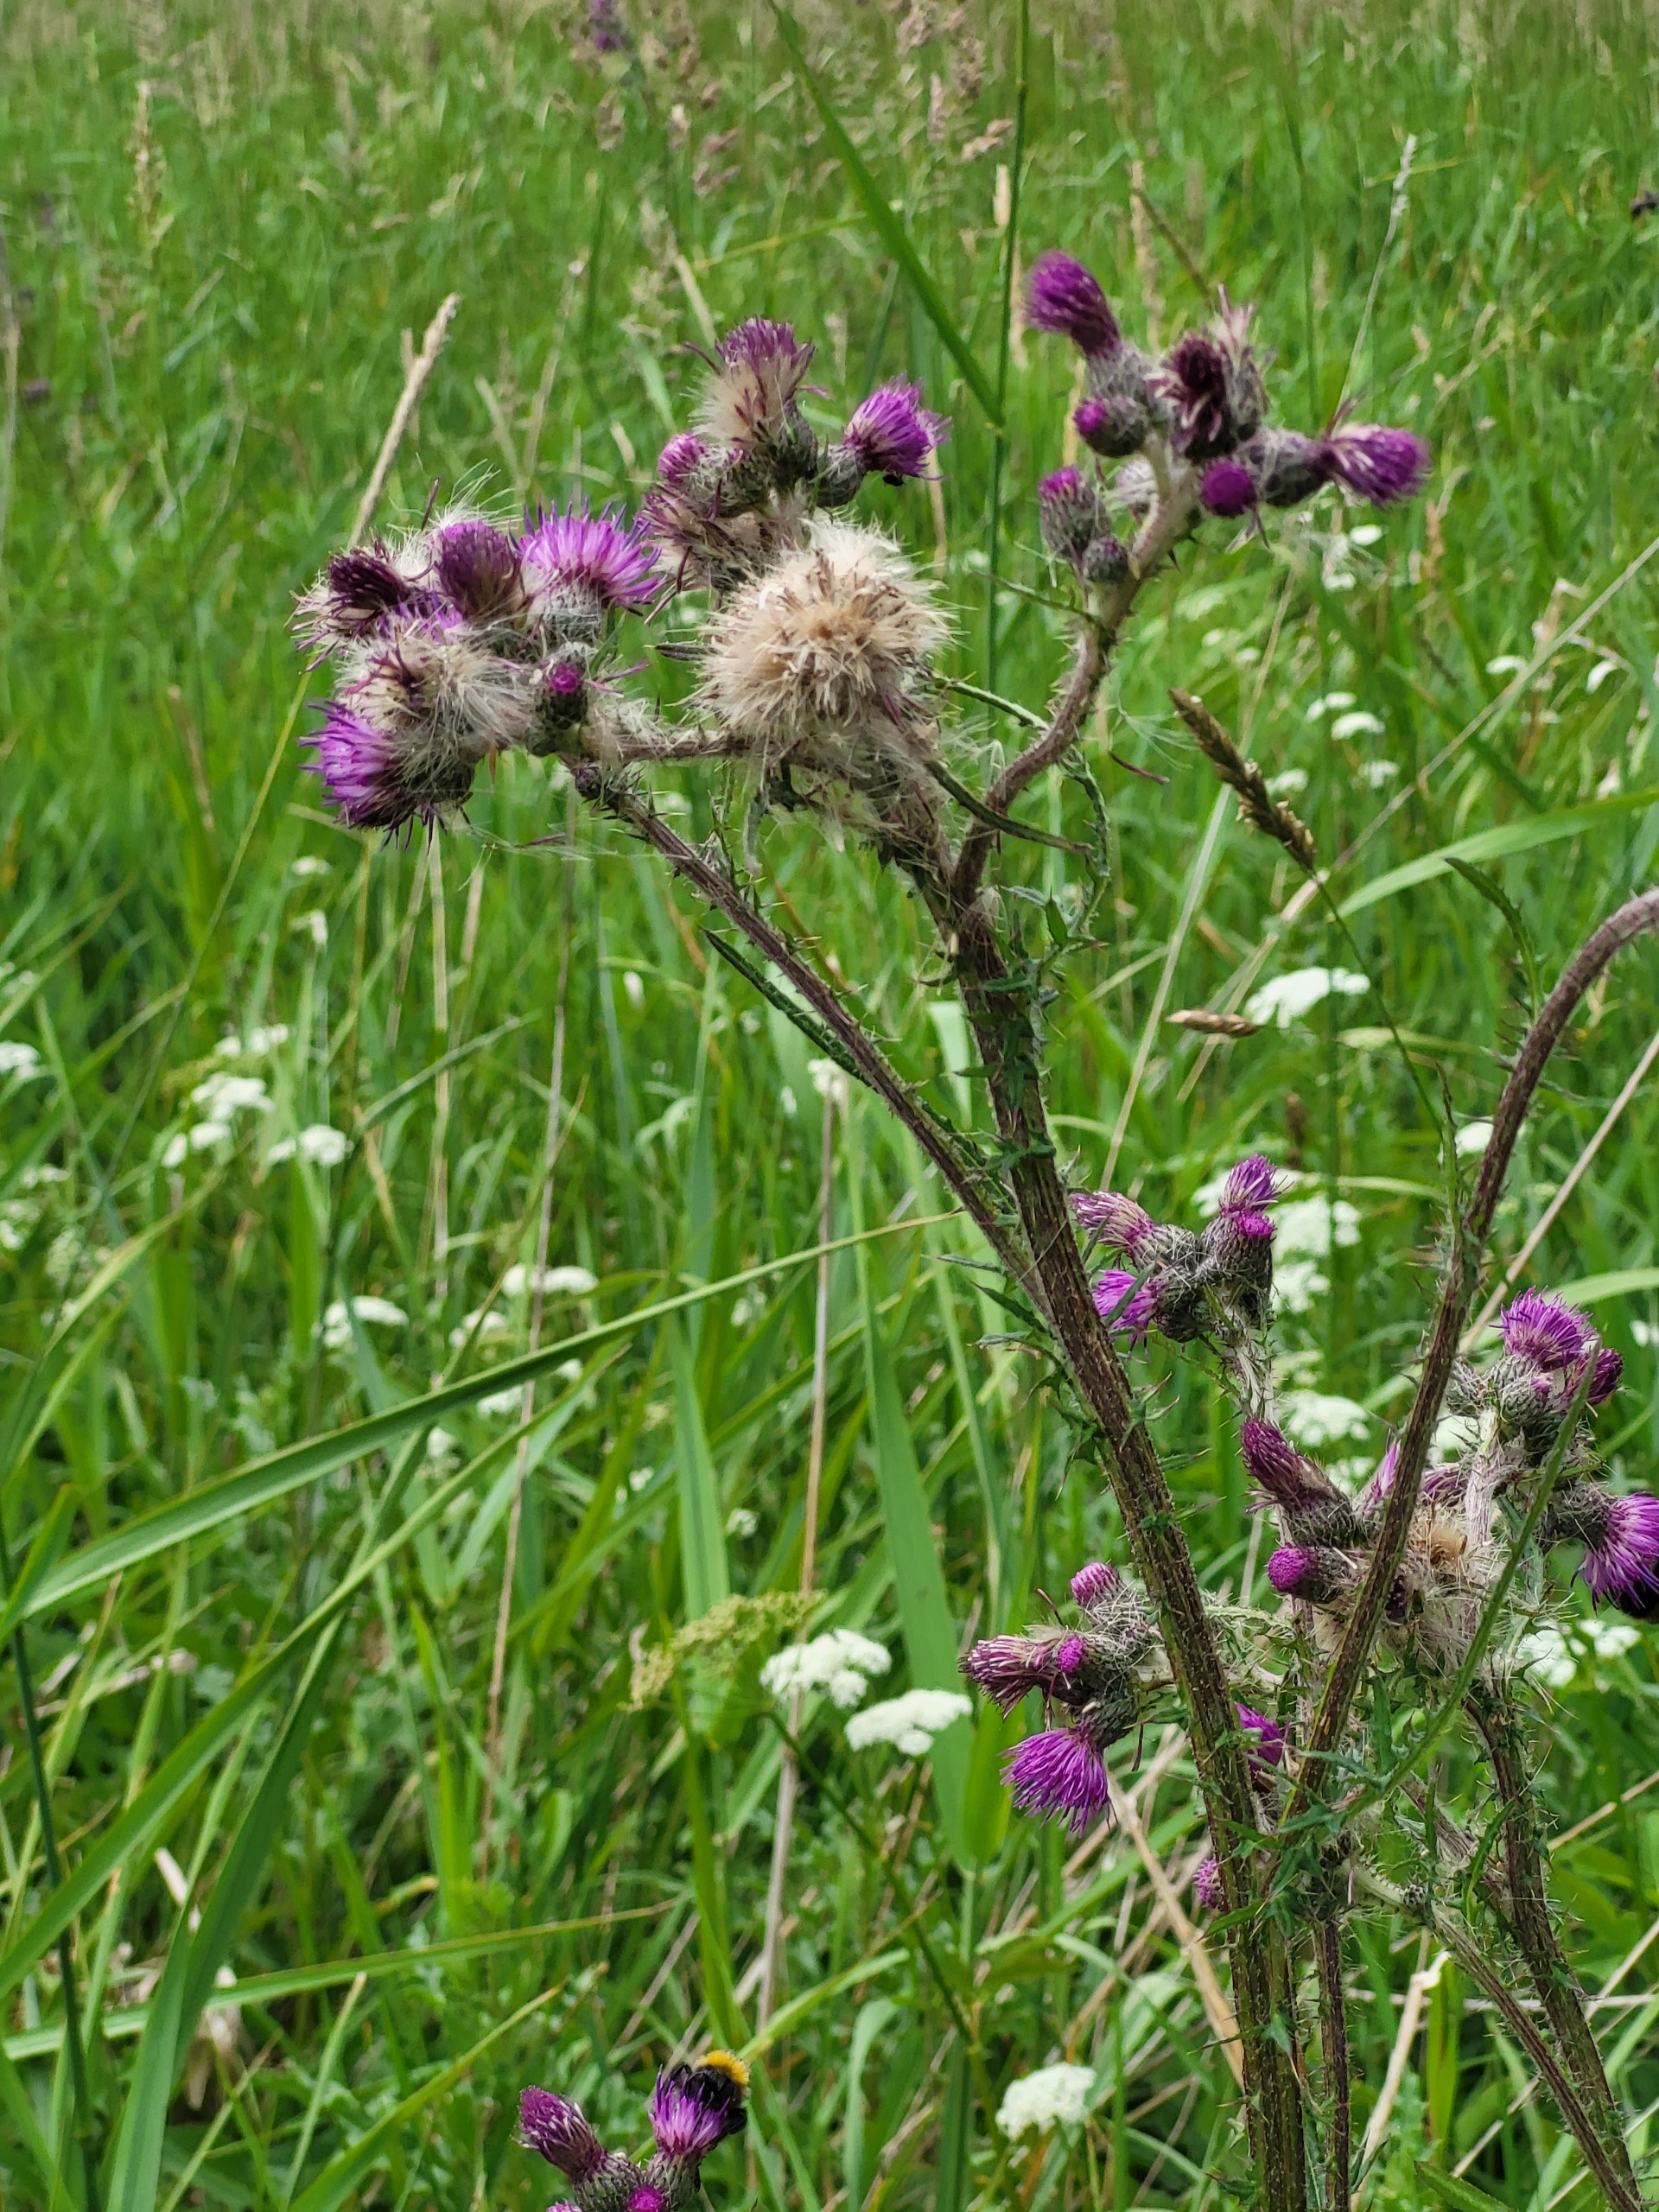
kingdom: Plantae
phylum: Tracheophyta
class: Magnoliopsida
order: Asterales
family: Asteraceae
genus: Cirsium
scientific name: Cirsium palustre
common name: Kær-tidsel
